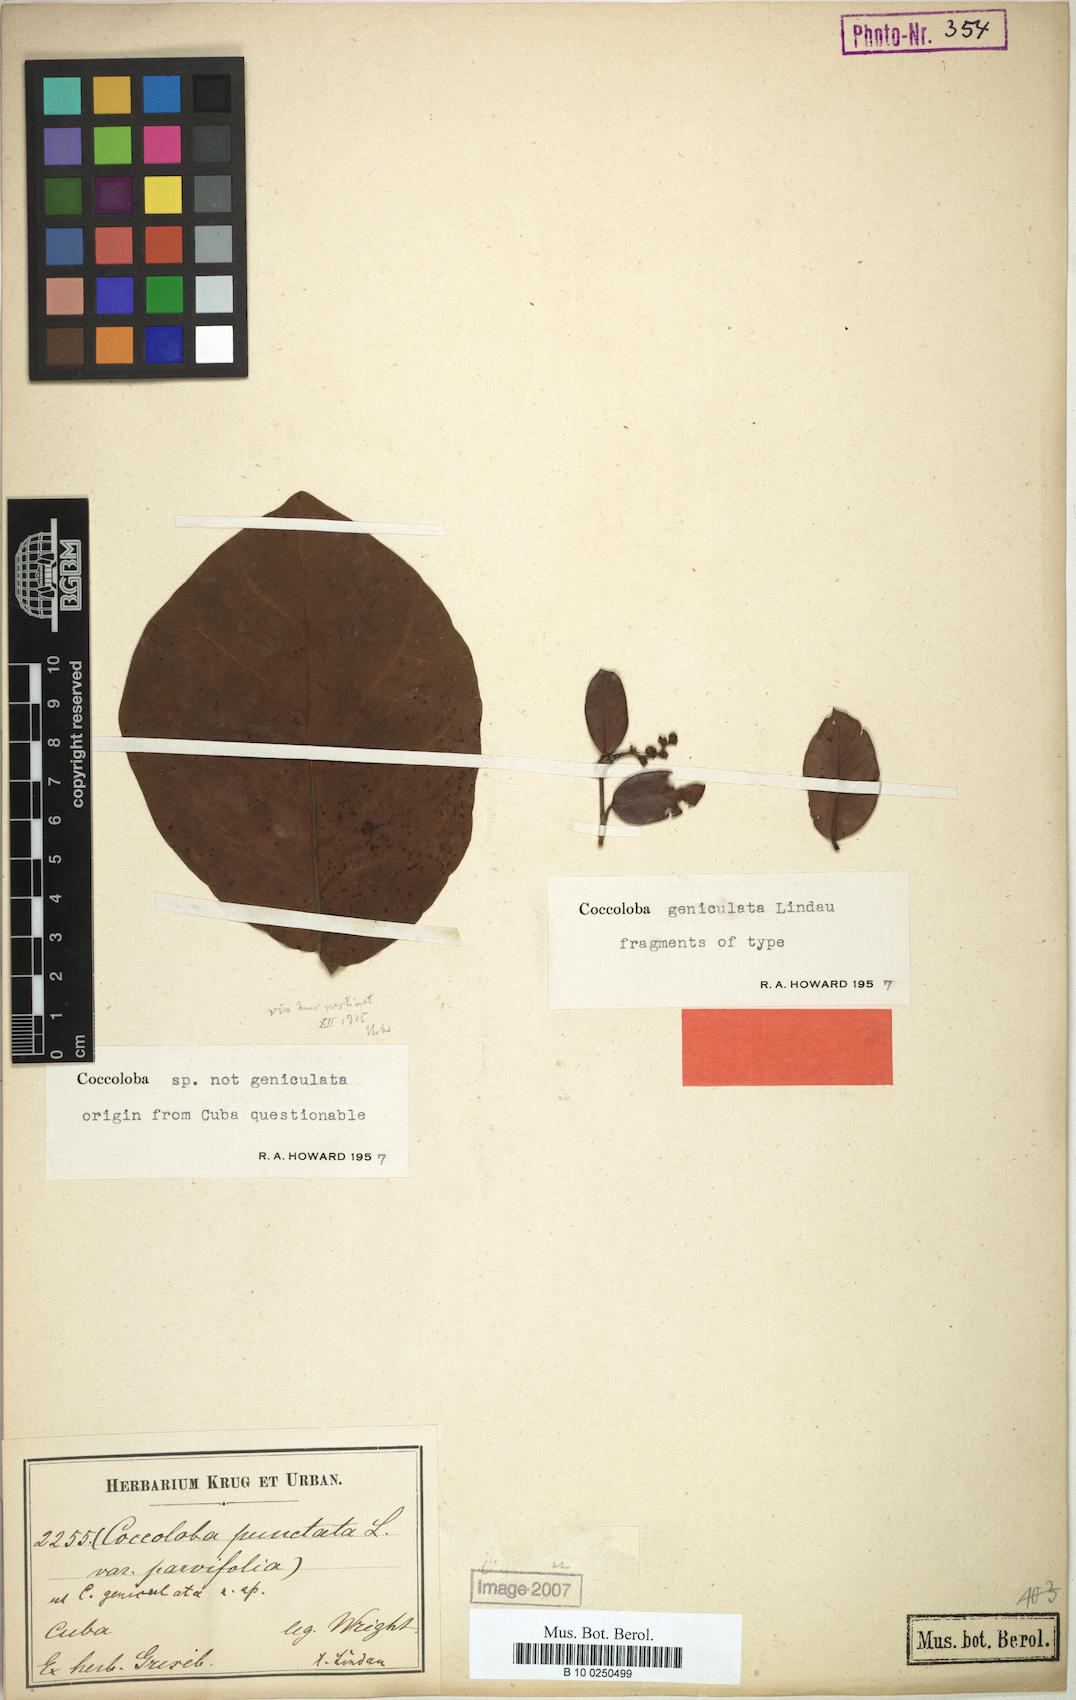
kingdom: Plantae
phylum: Tracheophyta
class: Magnoliopsida
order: Caryophyllales
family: Polygonaceae
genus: Coccoloba
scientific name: Coccoloba geniculata
